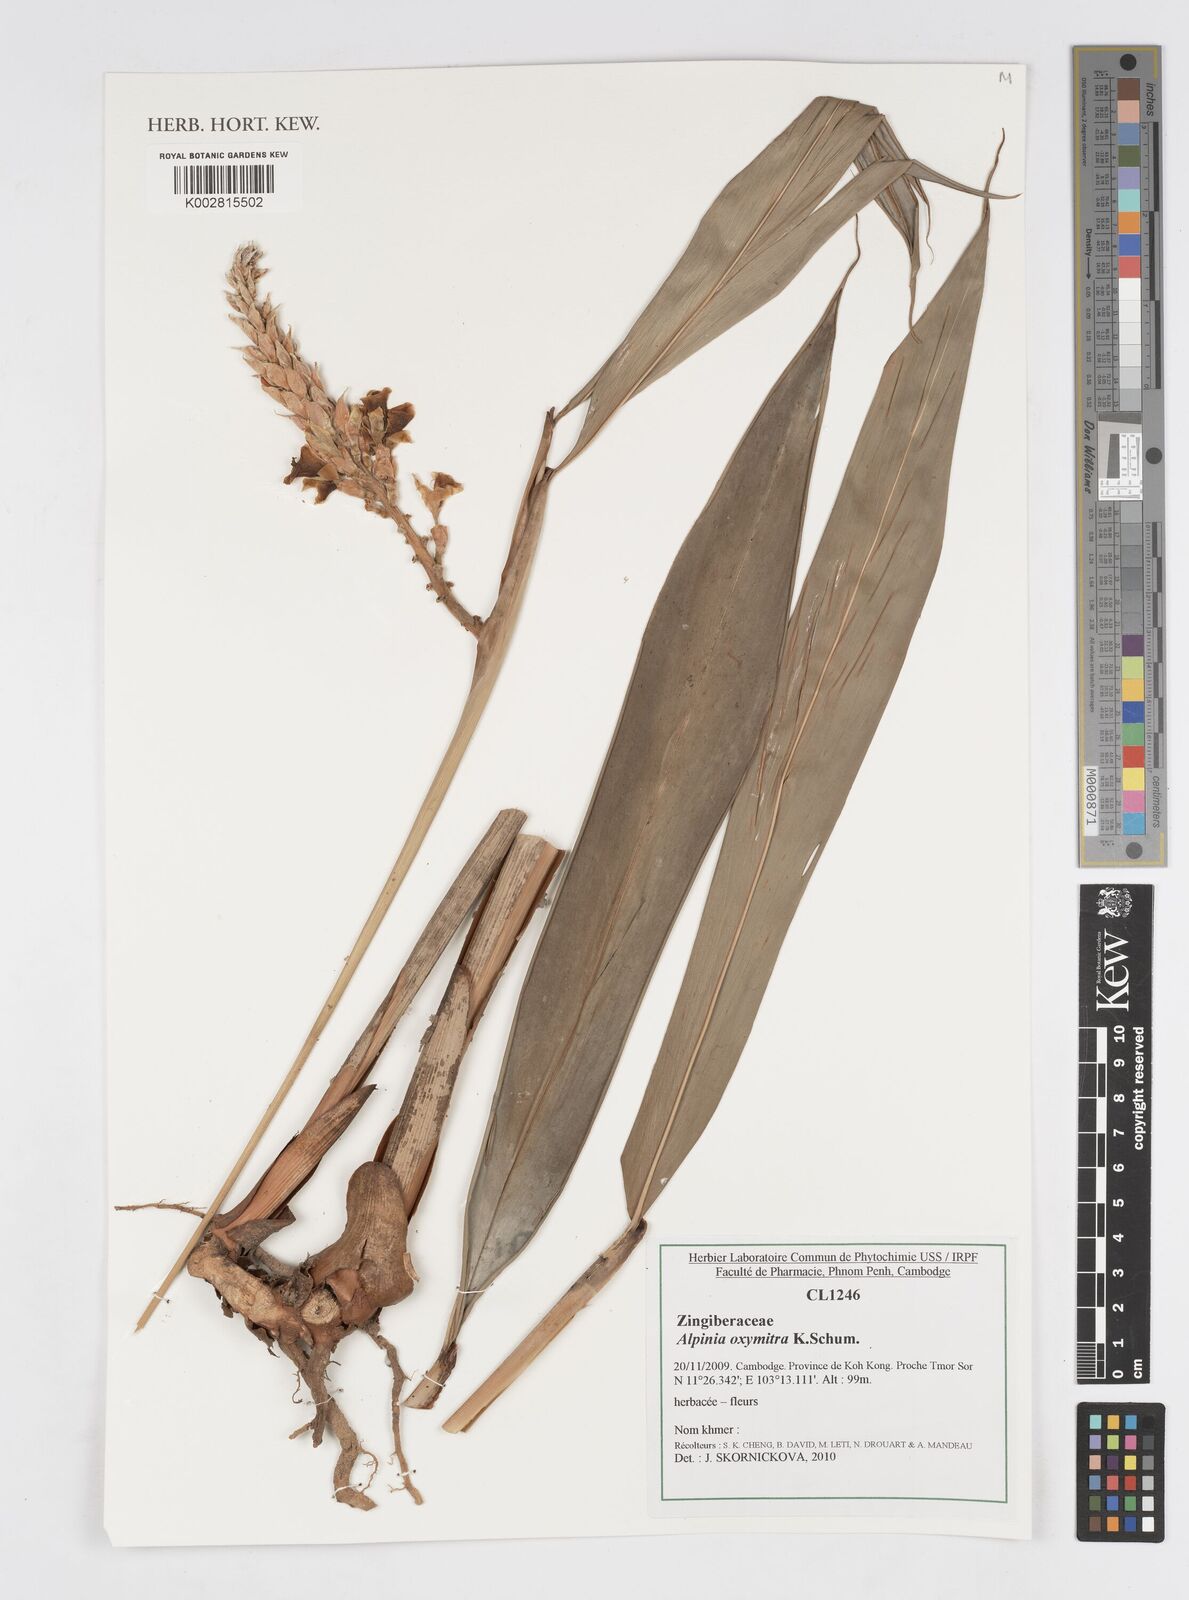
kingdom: Plantae
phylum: Tracheophyta
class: Liliopsida
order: Zingiberales
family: Zingiberaceae
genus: Alpinia
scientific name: Alpinia oxymitra
